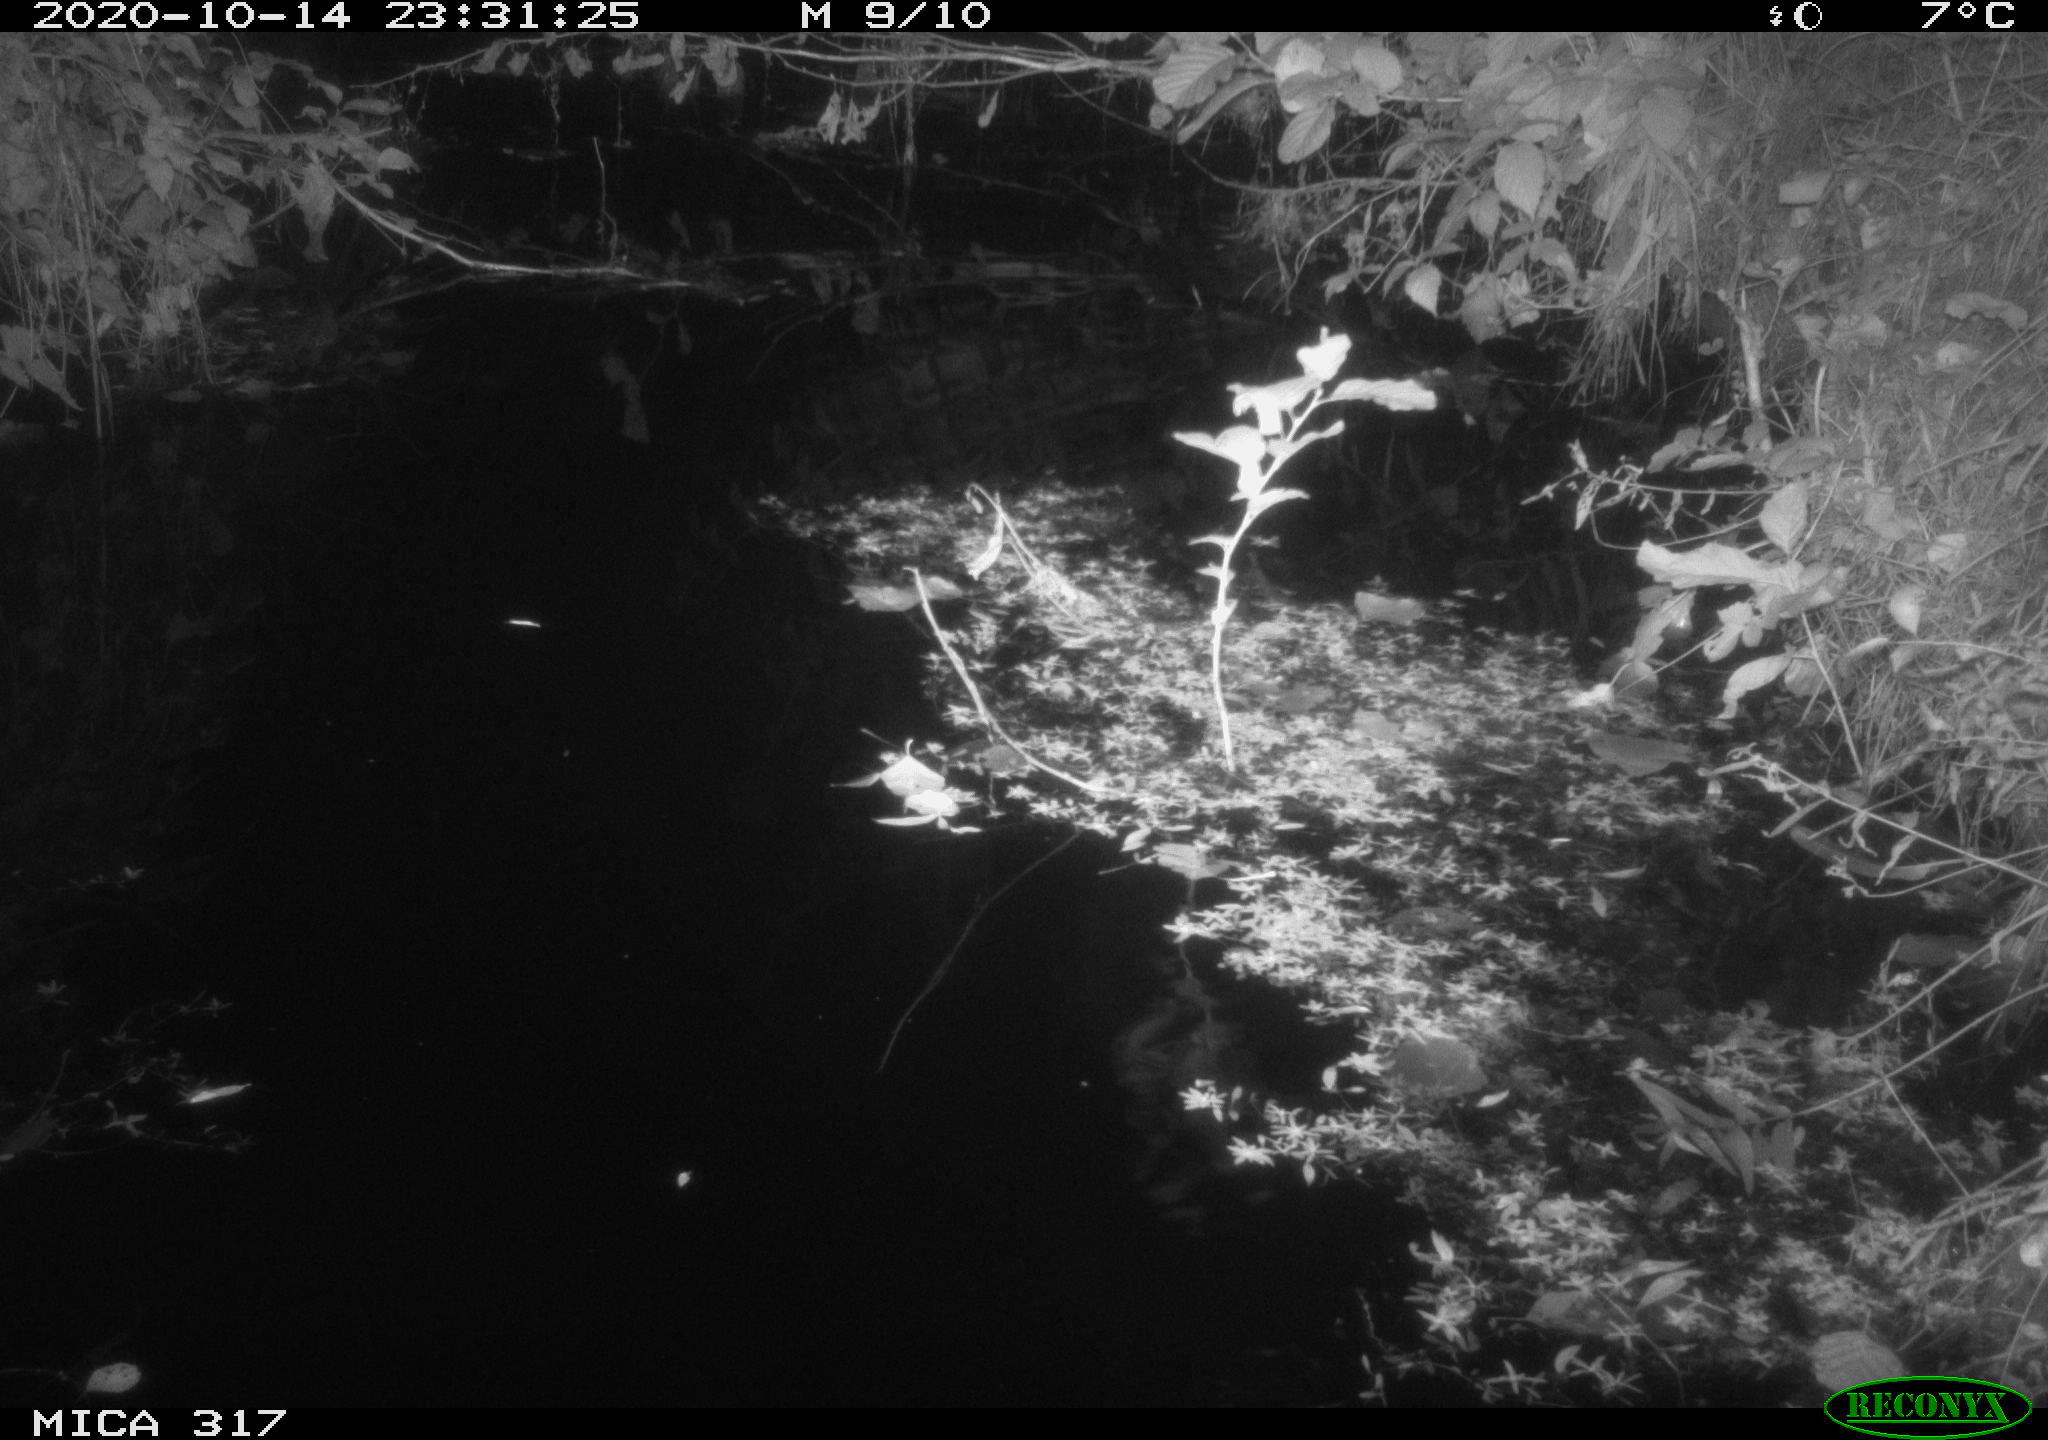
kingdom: Animalia
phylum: Chordata
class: Mammalia
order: Rodentia
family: Muridae
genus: Rattus
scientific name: Rattus norvegicus
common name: Brown rat
